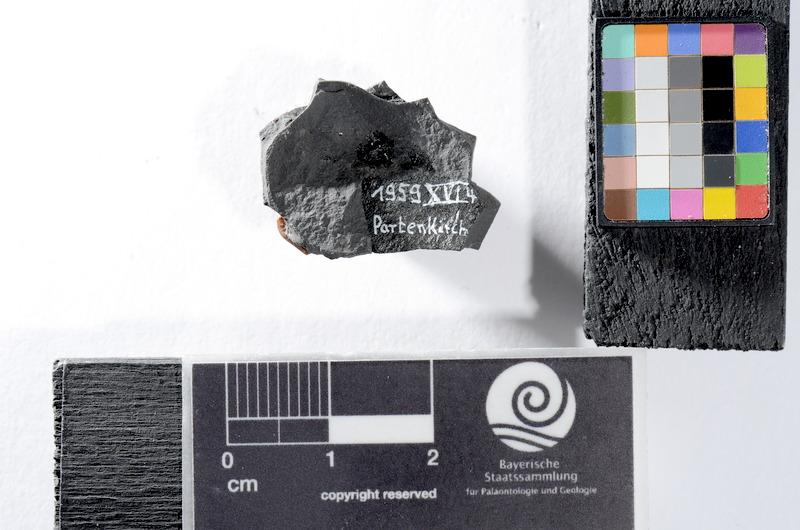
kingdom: Animalia
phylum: Chordata
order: Lepisosteiformes
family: Lepidotidae
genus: Lepidotes
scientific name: Lepidotes
